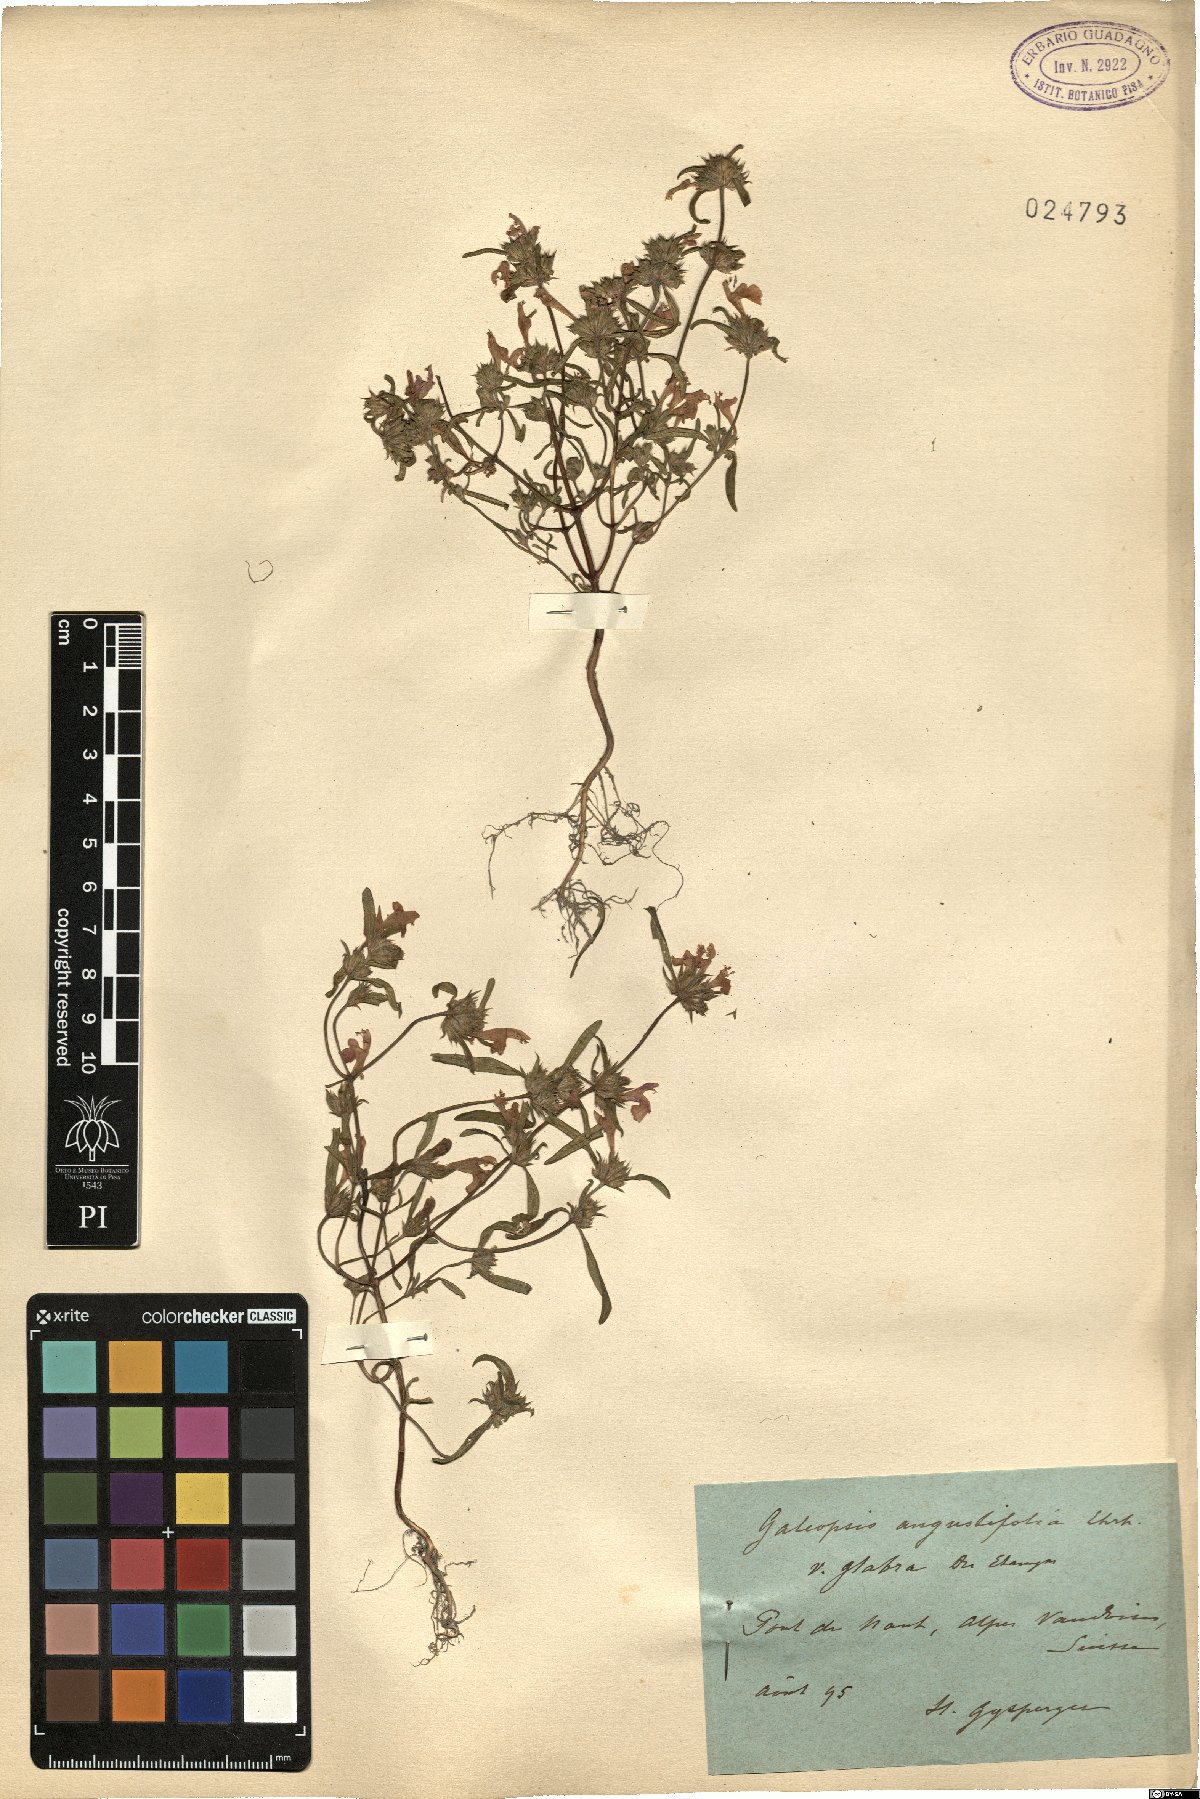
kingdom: Plantae
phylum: Tracheophyta
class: Magnoliopsida
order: Lamiales
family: Lamiaceae
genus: Galeopsis
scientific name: Galeopsis angustifolia
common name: Red hemp-nettle
